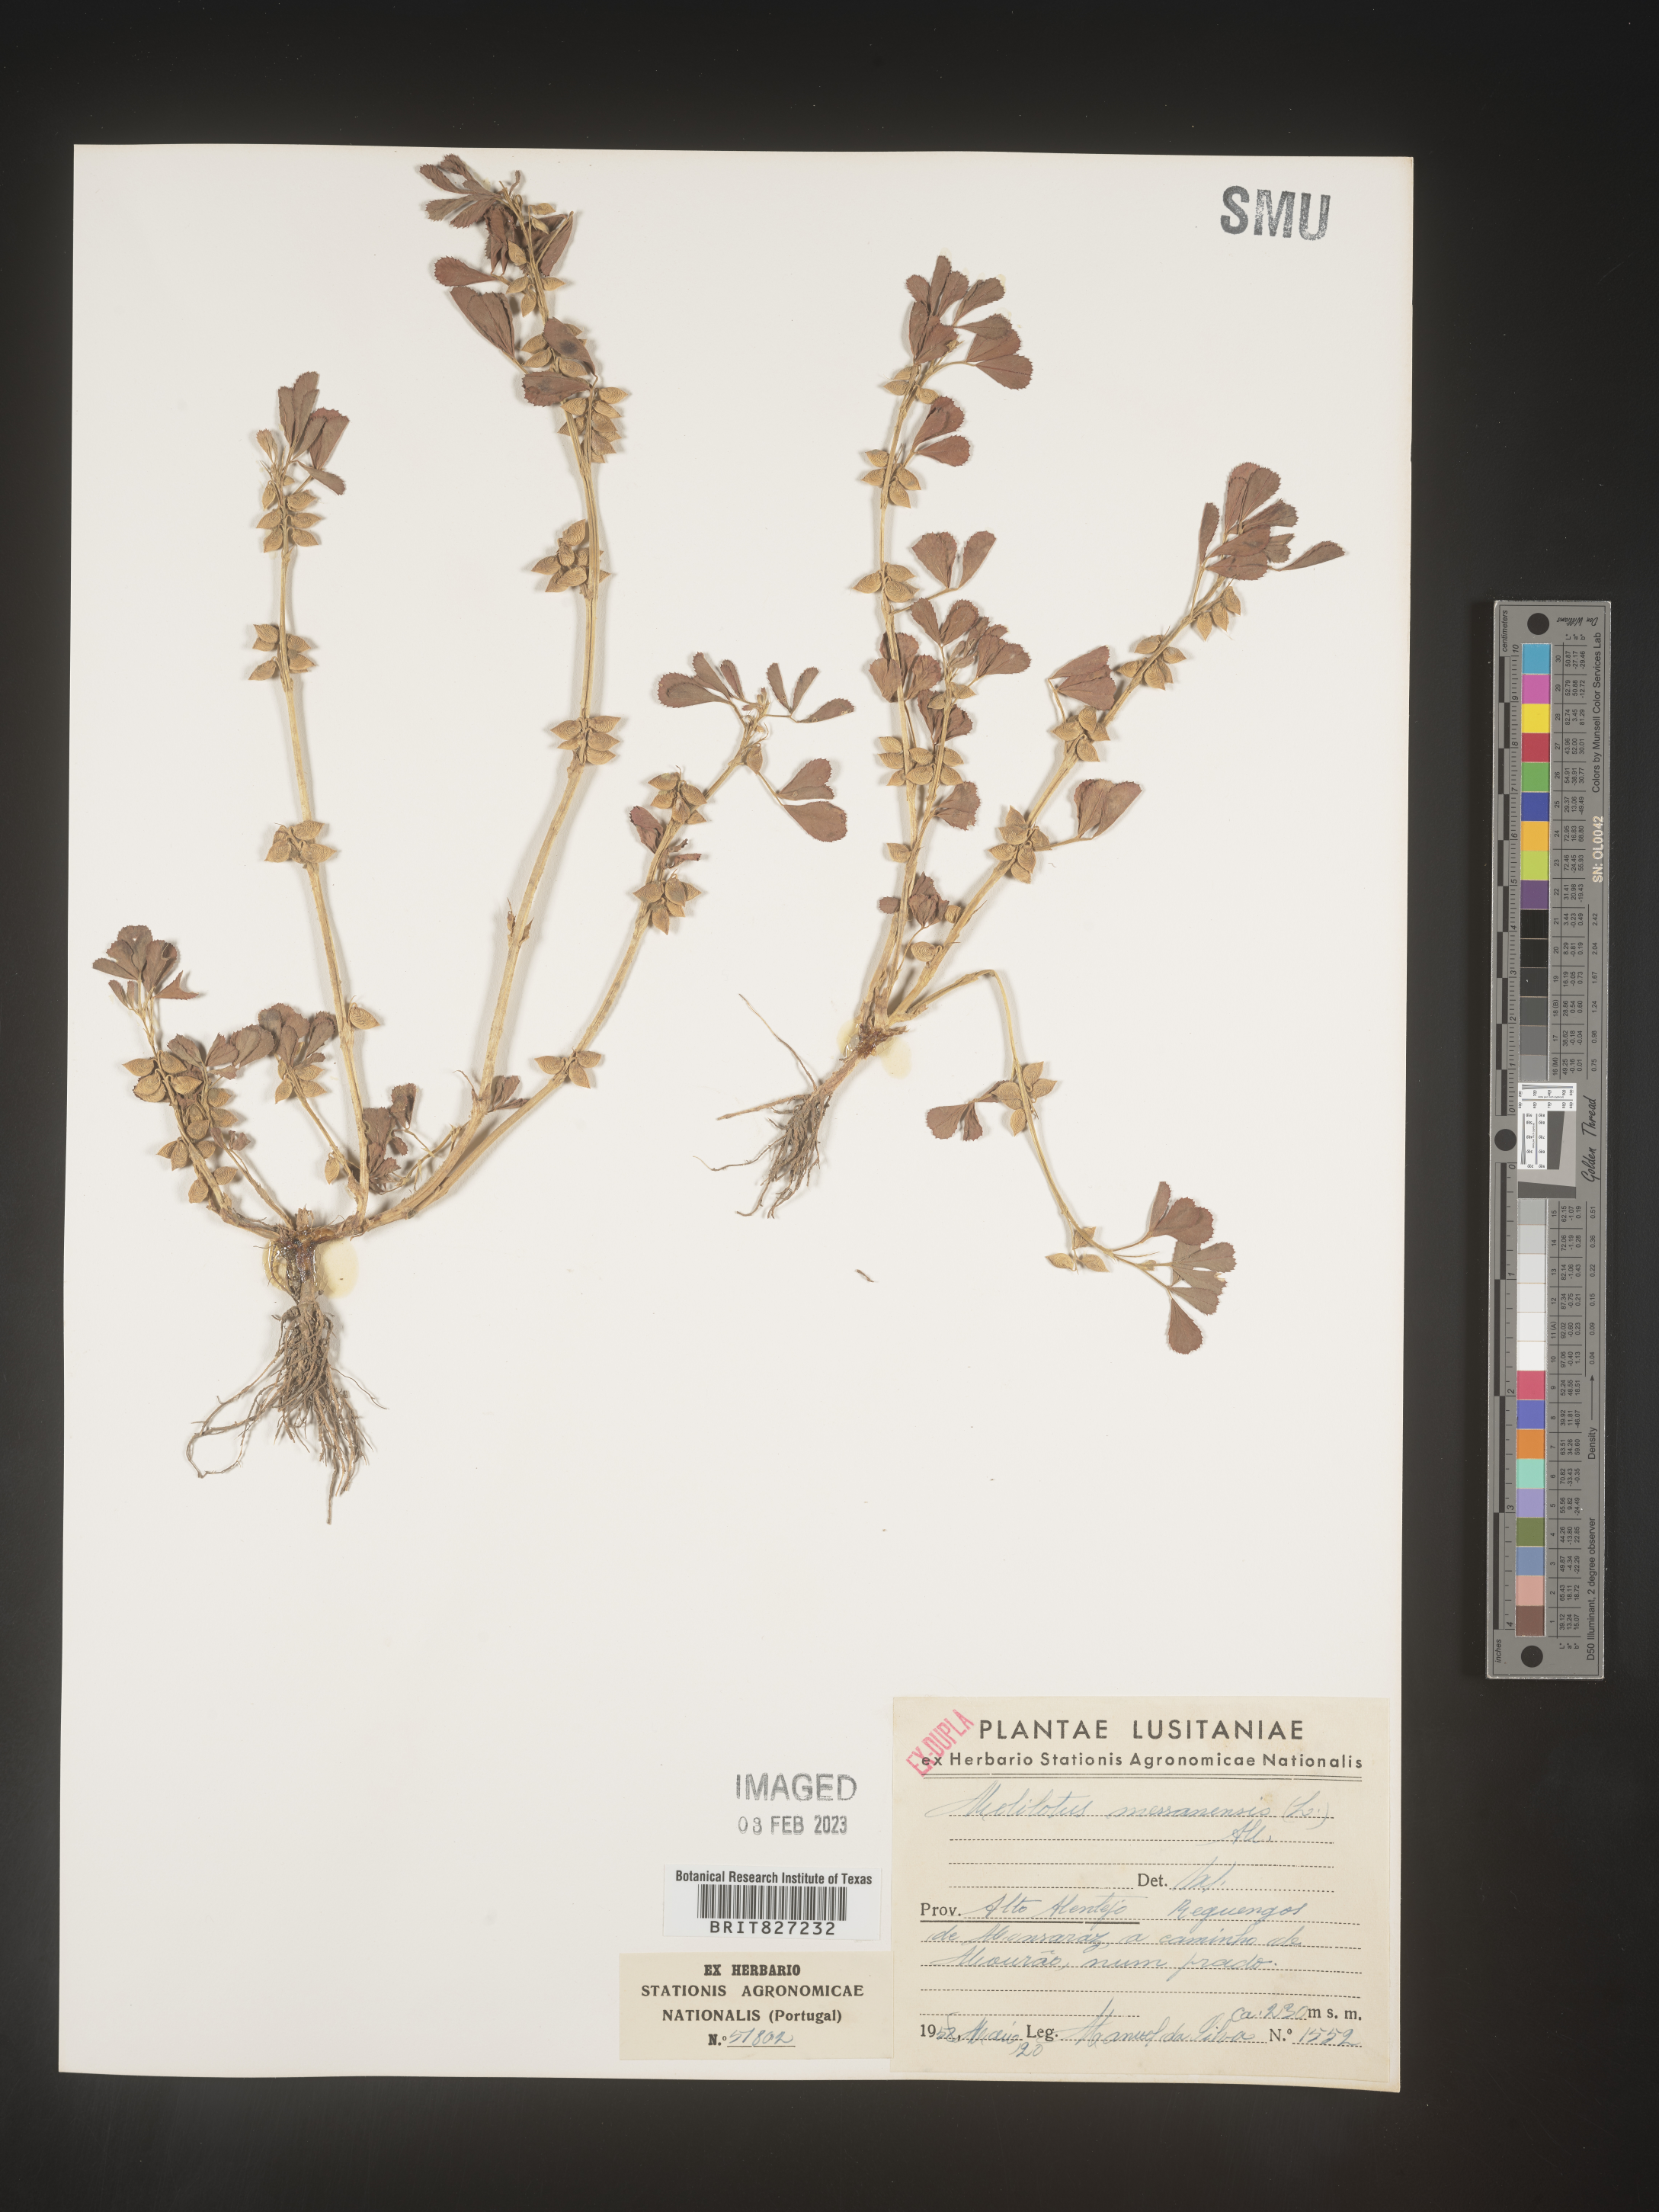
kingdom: Plantae
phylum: Tracheophyta
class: Magnoliopsida
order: Fabales
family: Fabaceae
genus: Melilotus
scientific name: Melilotus
